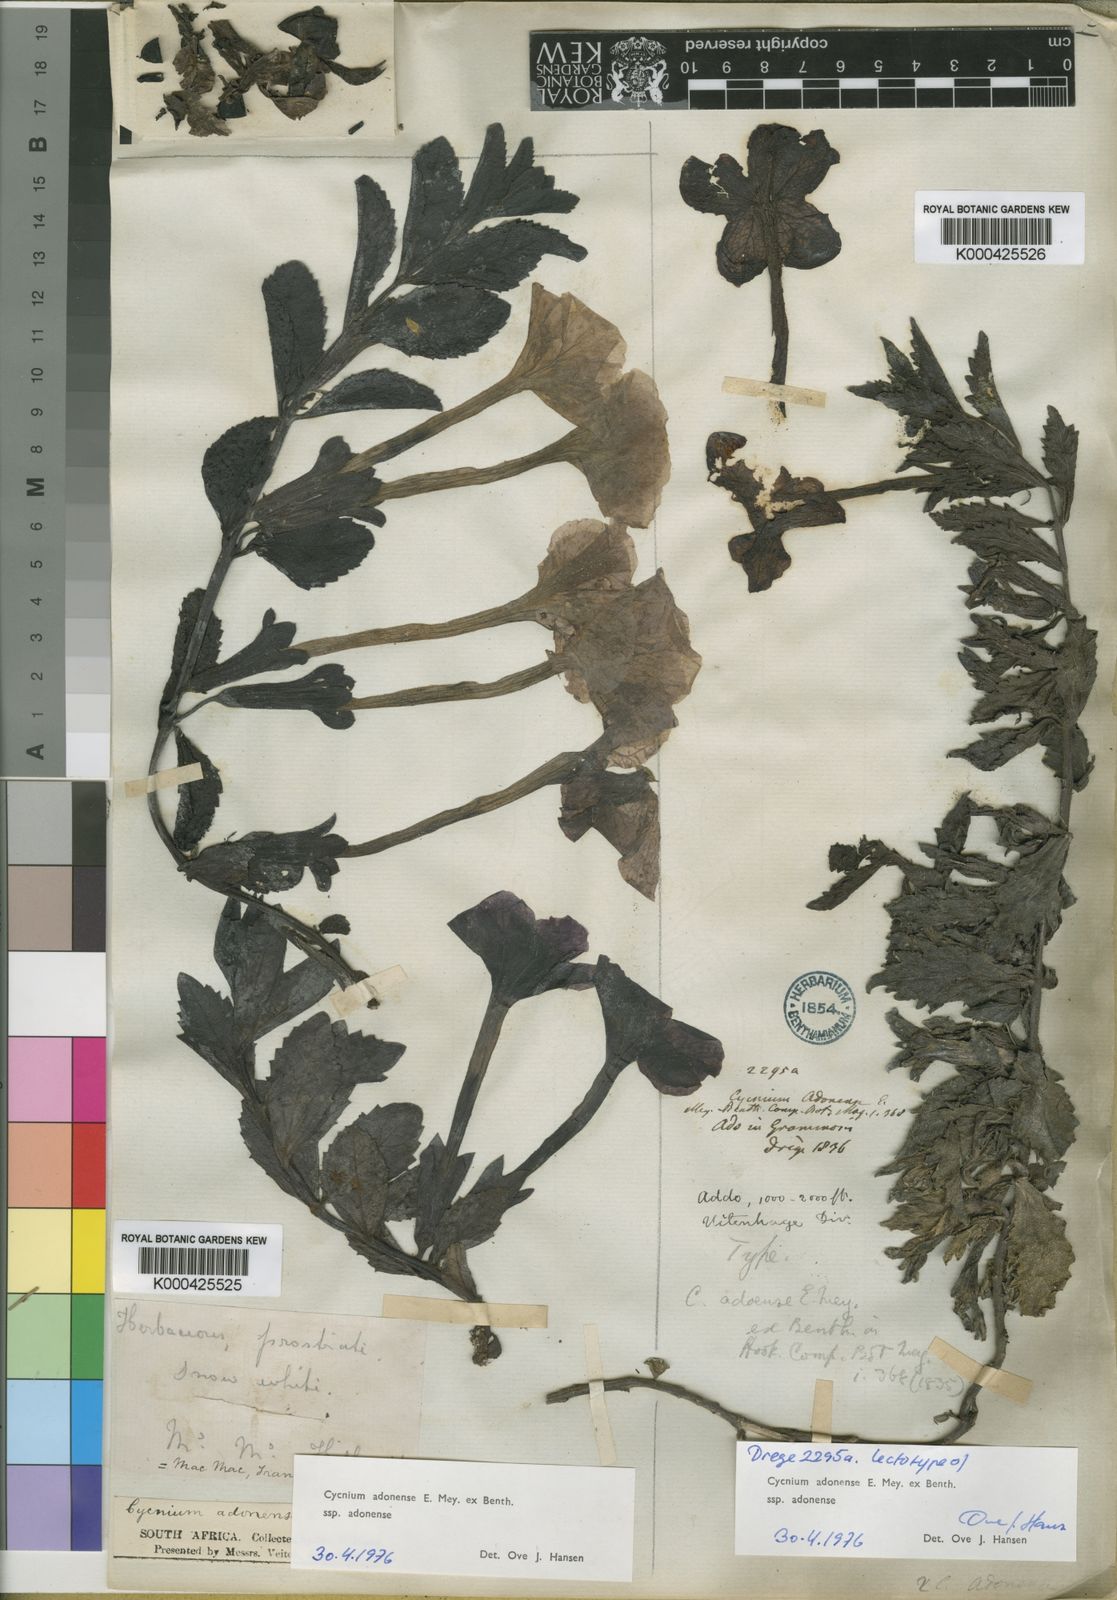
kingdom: Plantae
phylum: Tracheophyta
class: Magnoliopsida
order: Lamiales
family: Orobanchaceae
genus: Cycnium
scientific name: Cycnium adonense
